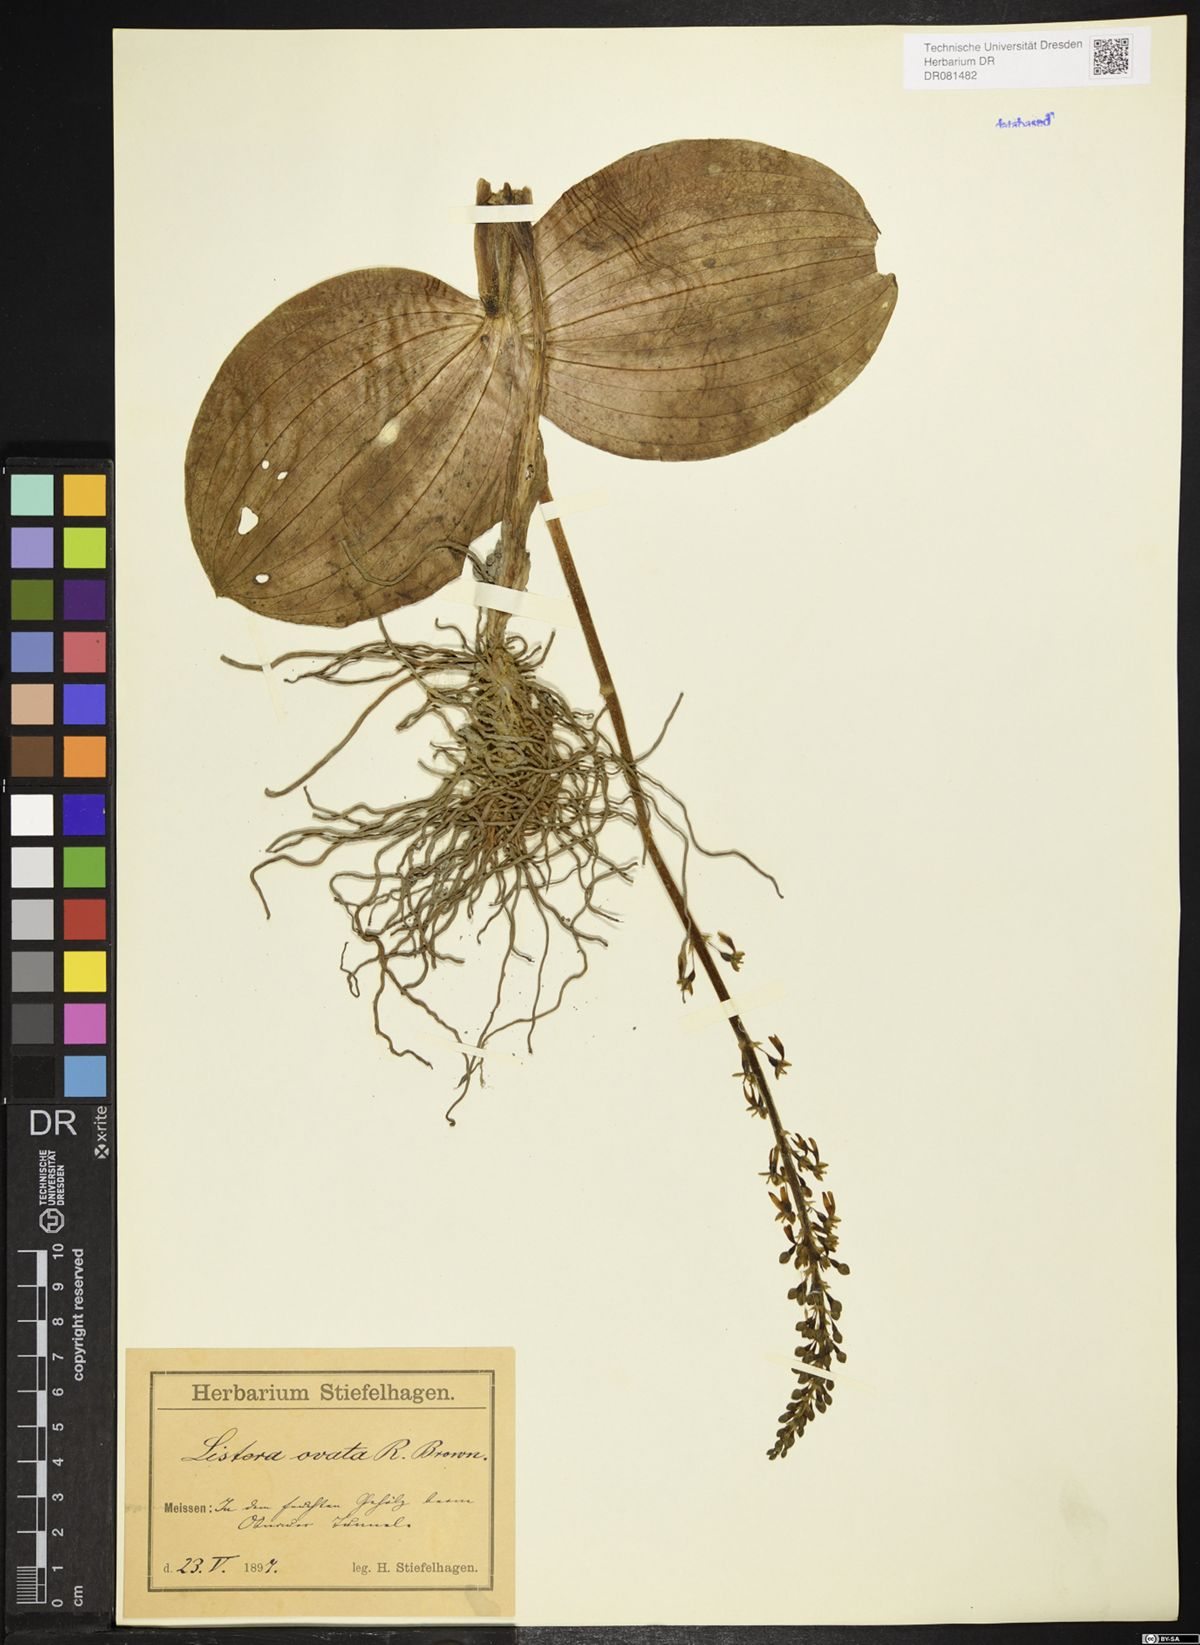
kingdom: Plantae
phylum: Tracheophyta
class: Liliopsida
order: Asparagales
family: Orchidaceae
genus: Neottia
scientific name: Neottia ovata
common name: Common twayblade
